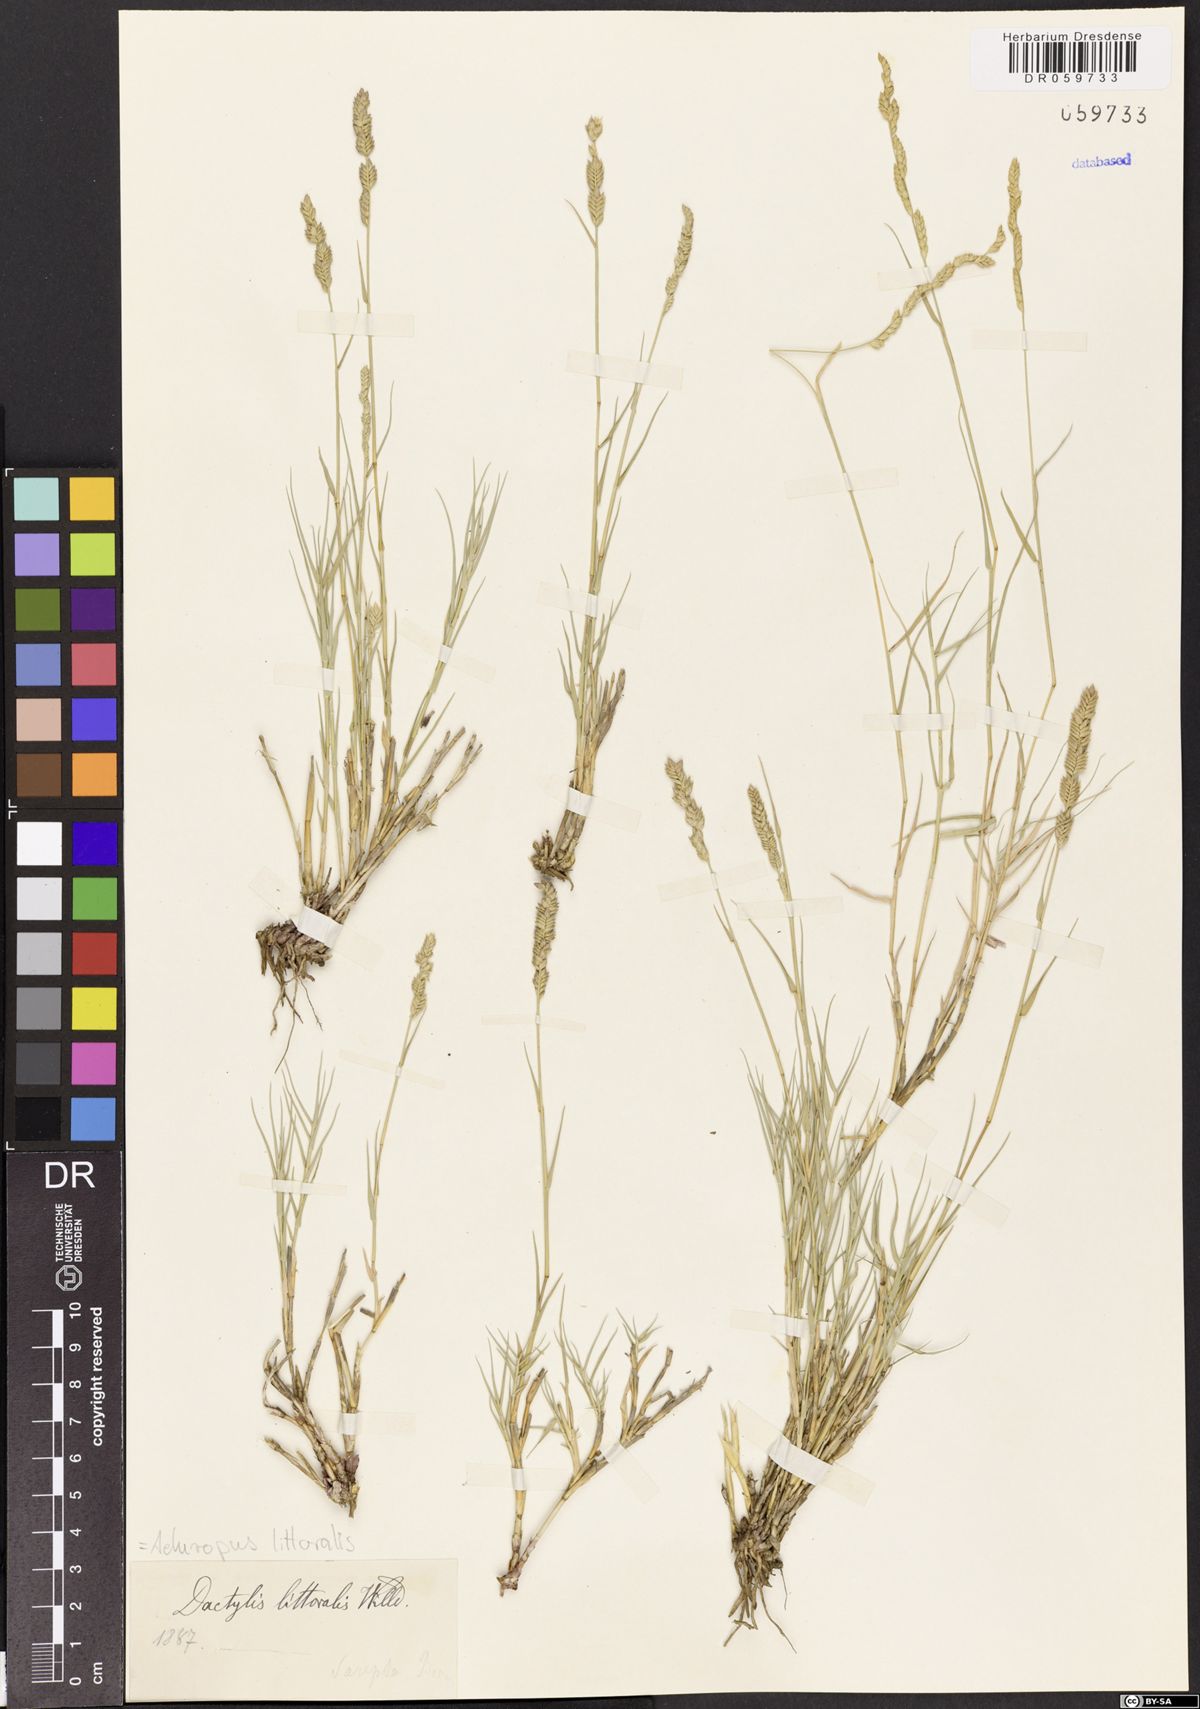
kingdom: Plantae
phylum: Tracheophyta
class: Liliopsida
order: Poales
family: Poaceae
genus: Aeluropus
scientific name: Aeluropus littoralis
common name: Indian walnut
